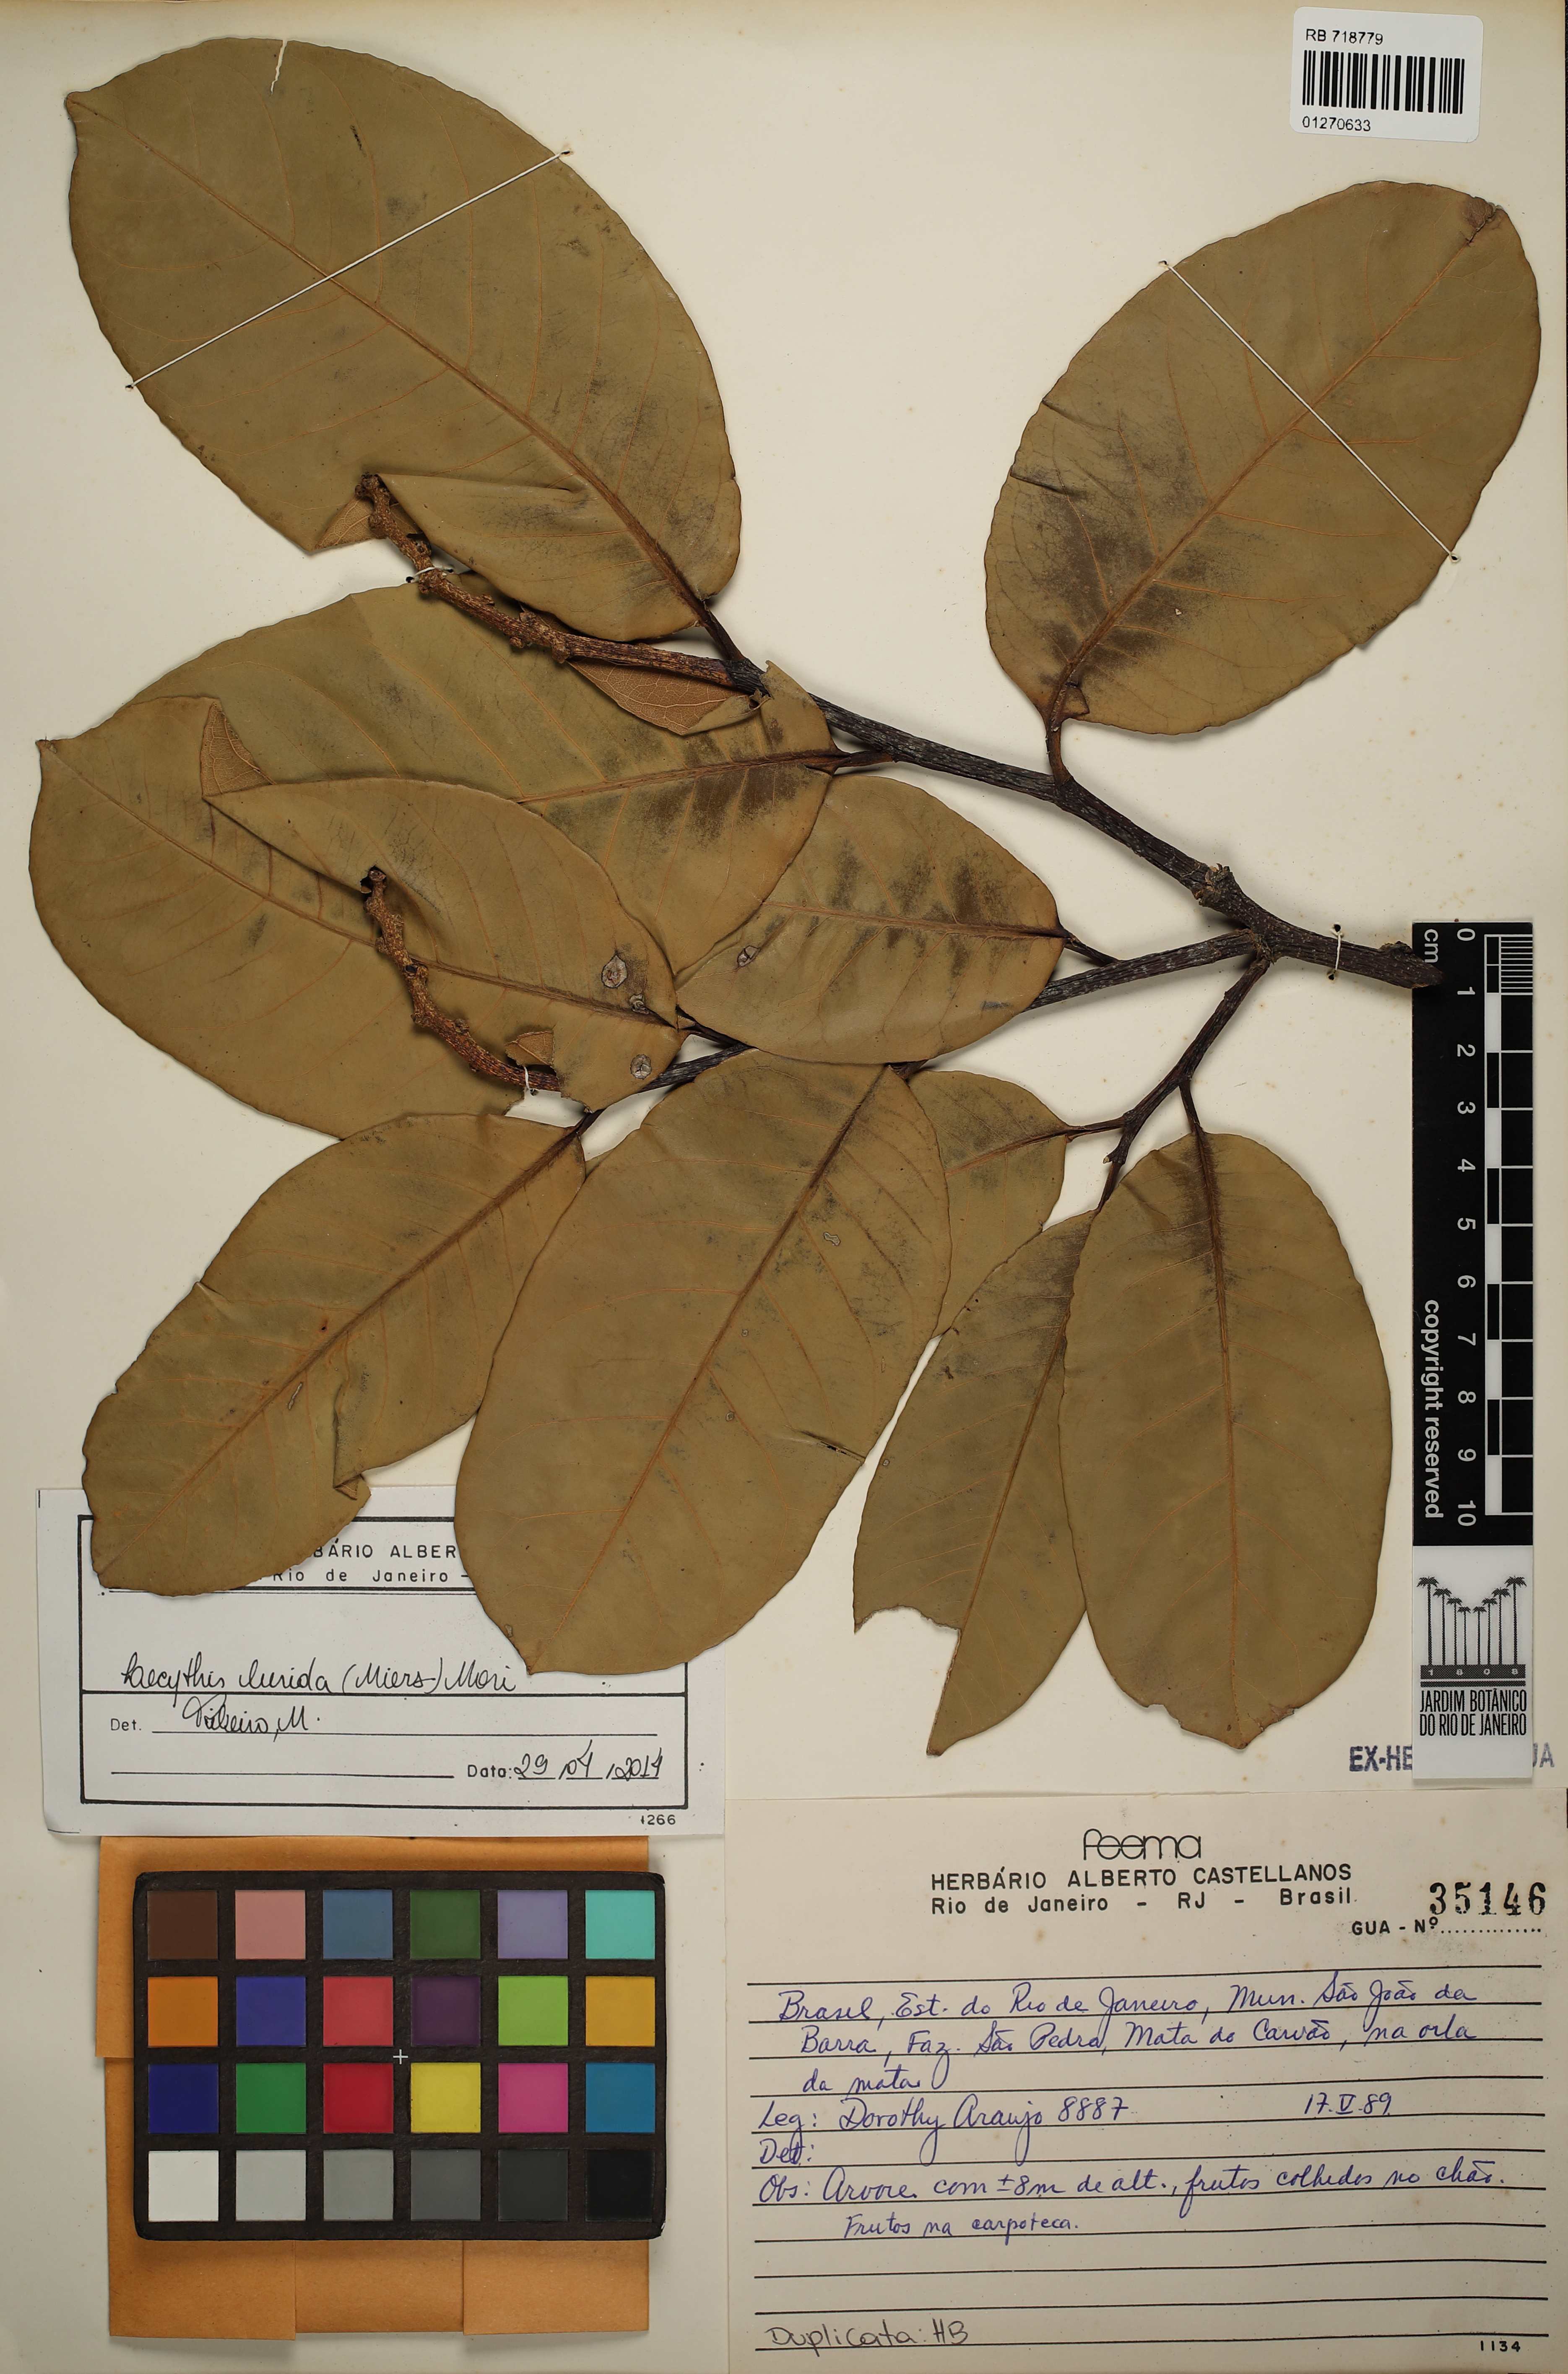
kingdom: Plantae
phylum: Tracheophyta
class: Magnoliopsida
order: Ericales
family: Lecythidaceae
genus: Lecythis
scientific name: Lecythis lurida
